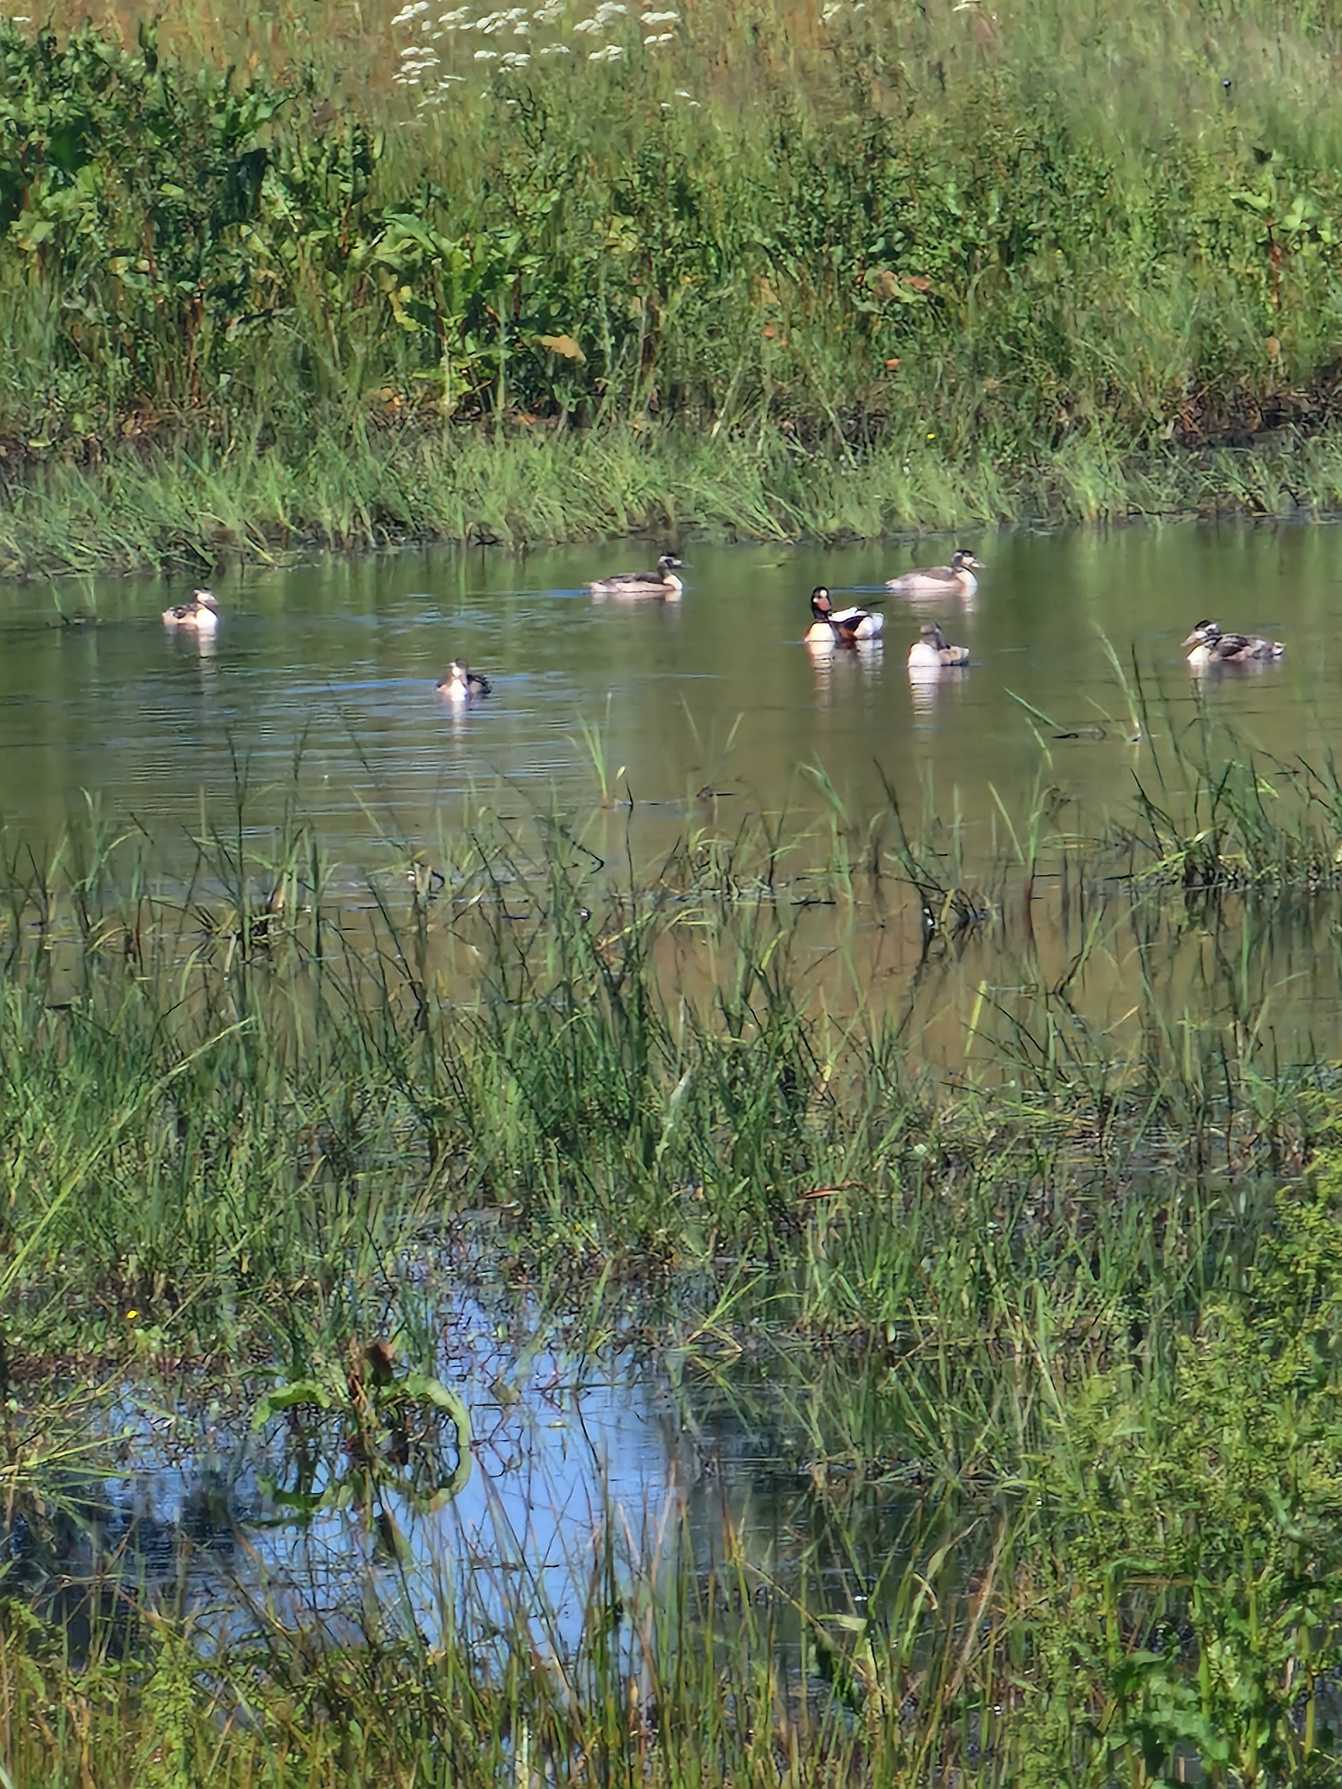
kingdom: Animalia
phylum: Chordata
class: Aves
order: Anseriformes
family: Anatidae
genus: Tadorna
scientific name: Tadorna tadorna
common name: Gravand
